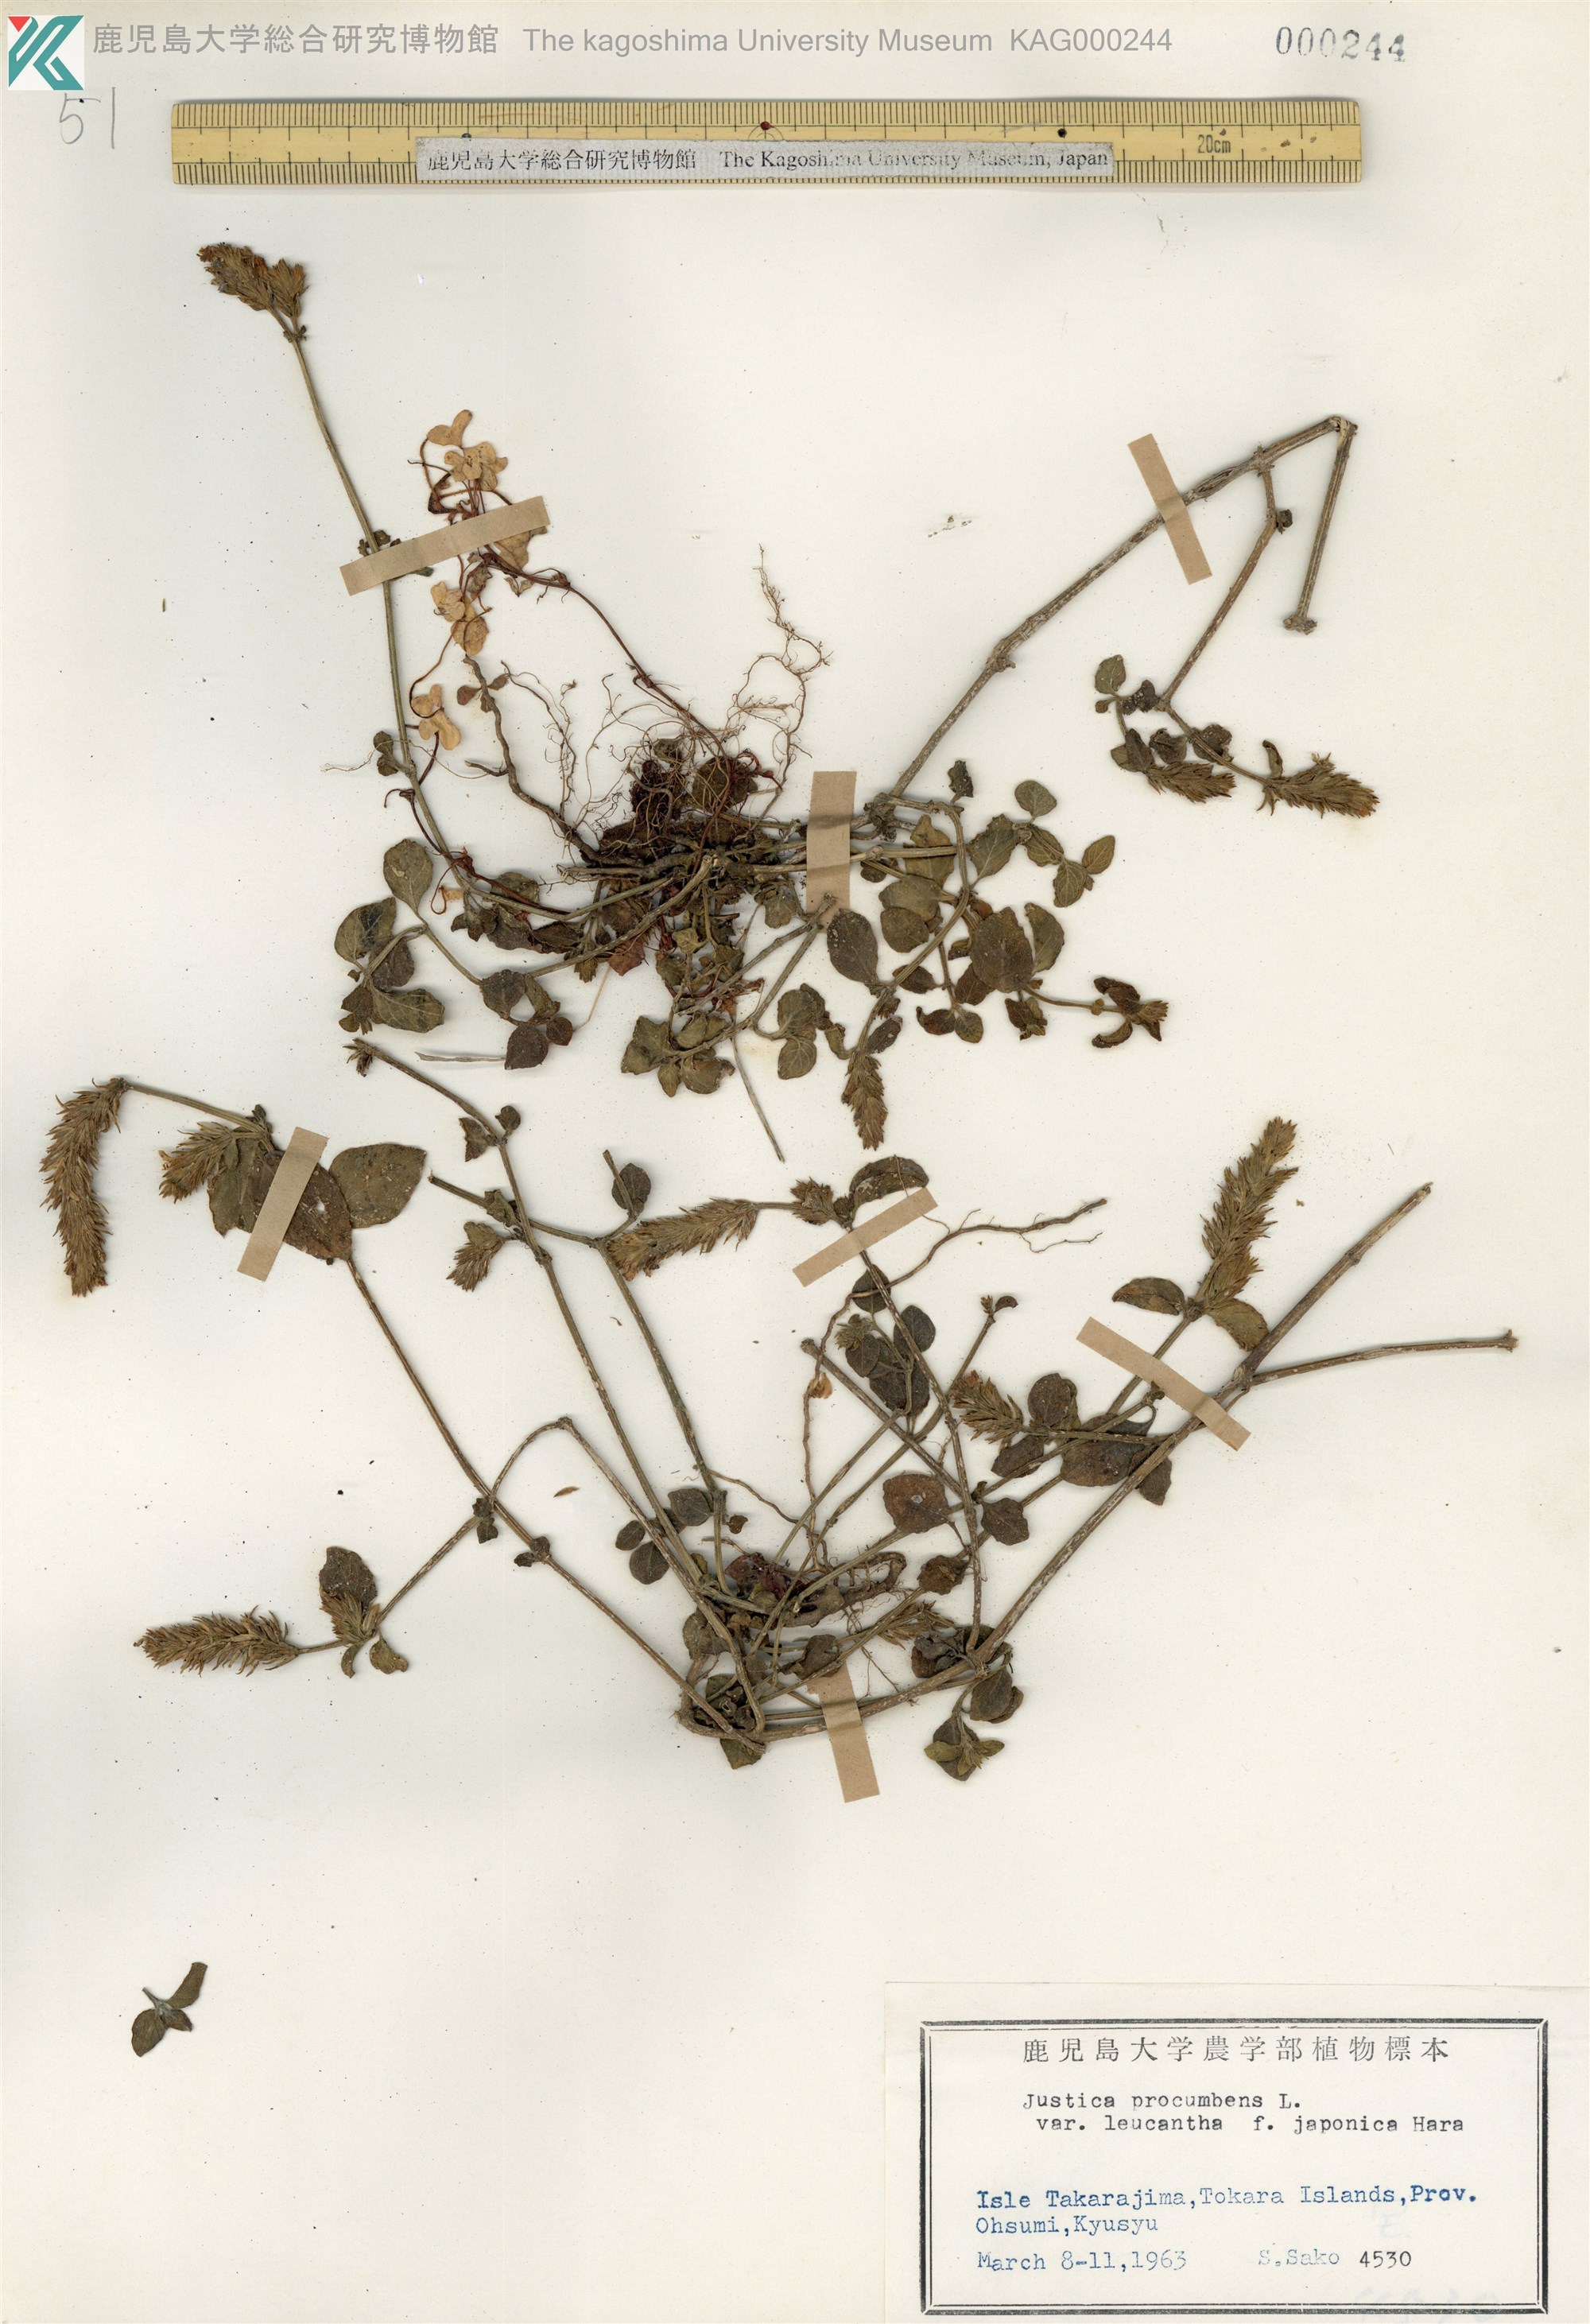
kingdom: Plantae
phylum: Tracheophyta
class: Magnoliopsida
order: Lamiales
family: Acanthaceae
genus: Rostellularia
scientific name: Rostellularia procumbens
